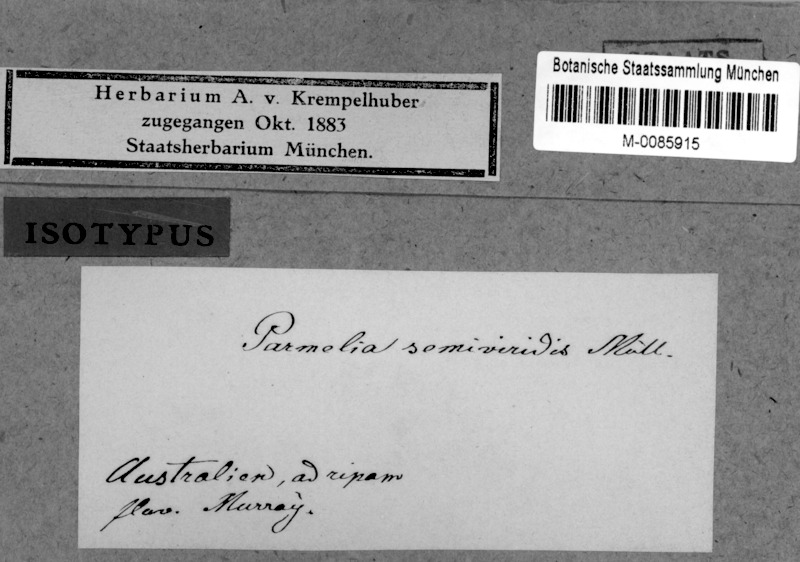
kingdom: Fungi
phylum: Ascomycota
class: Lecanoromycetes
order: Lecanorales
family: Parmeliaceae
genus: Xanthoparmelia
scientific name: Xanthoparmelia semiviridis
